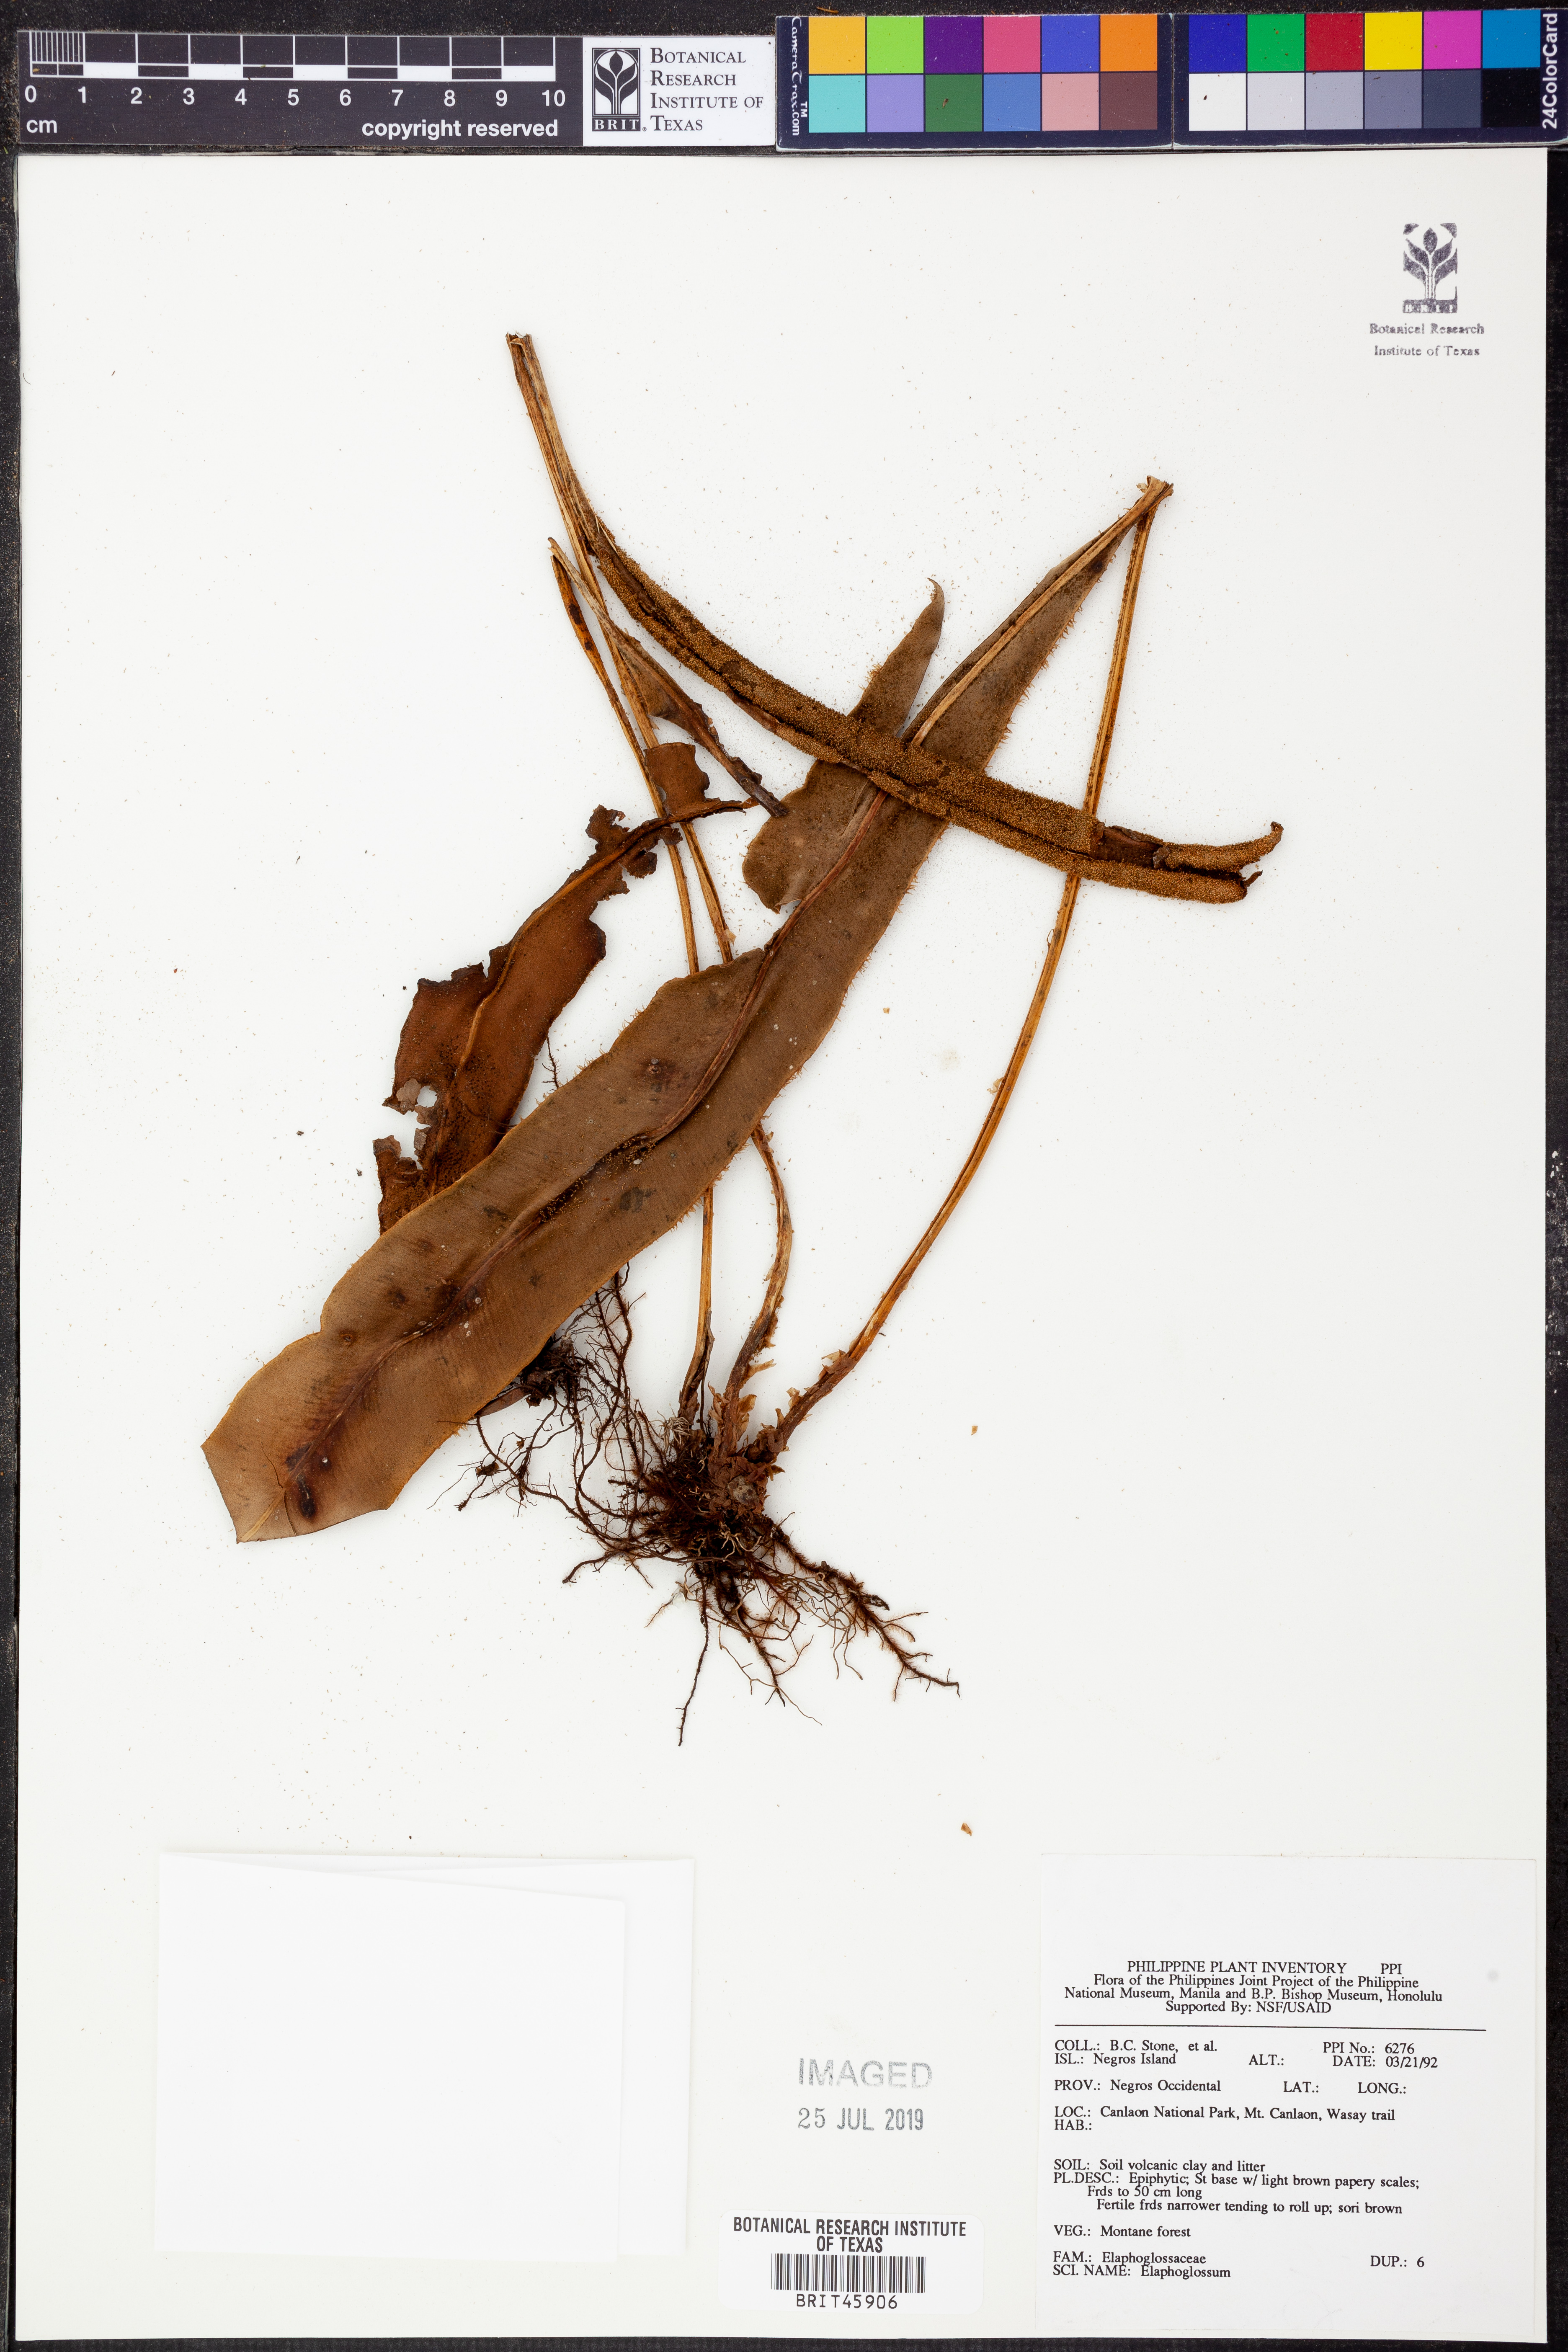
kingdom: Plantae
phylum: Tracheophyta
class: Polypodiopsida
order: Polypodiales
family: Dryopteridaceae
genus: Elaphoglossum
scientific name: Elaphoglossum
